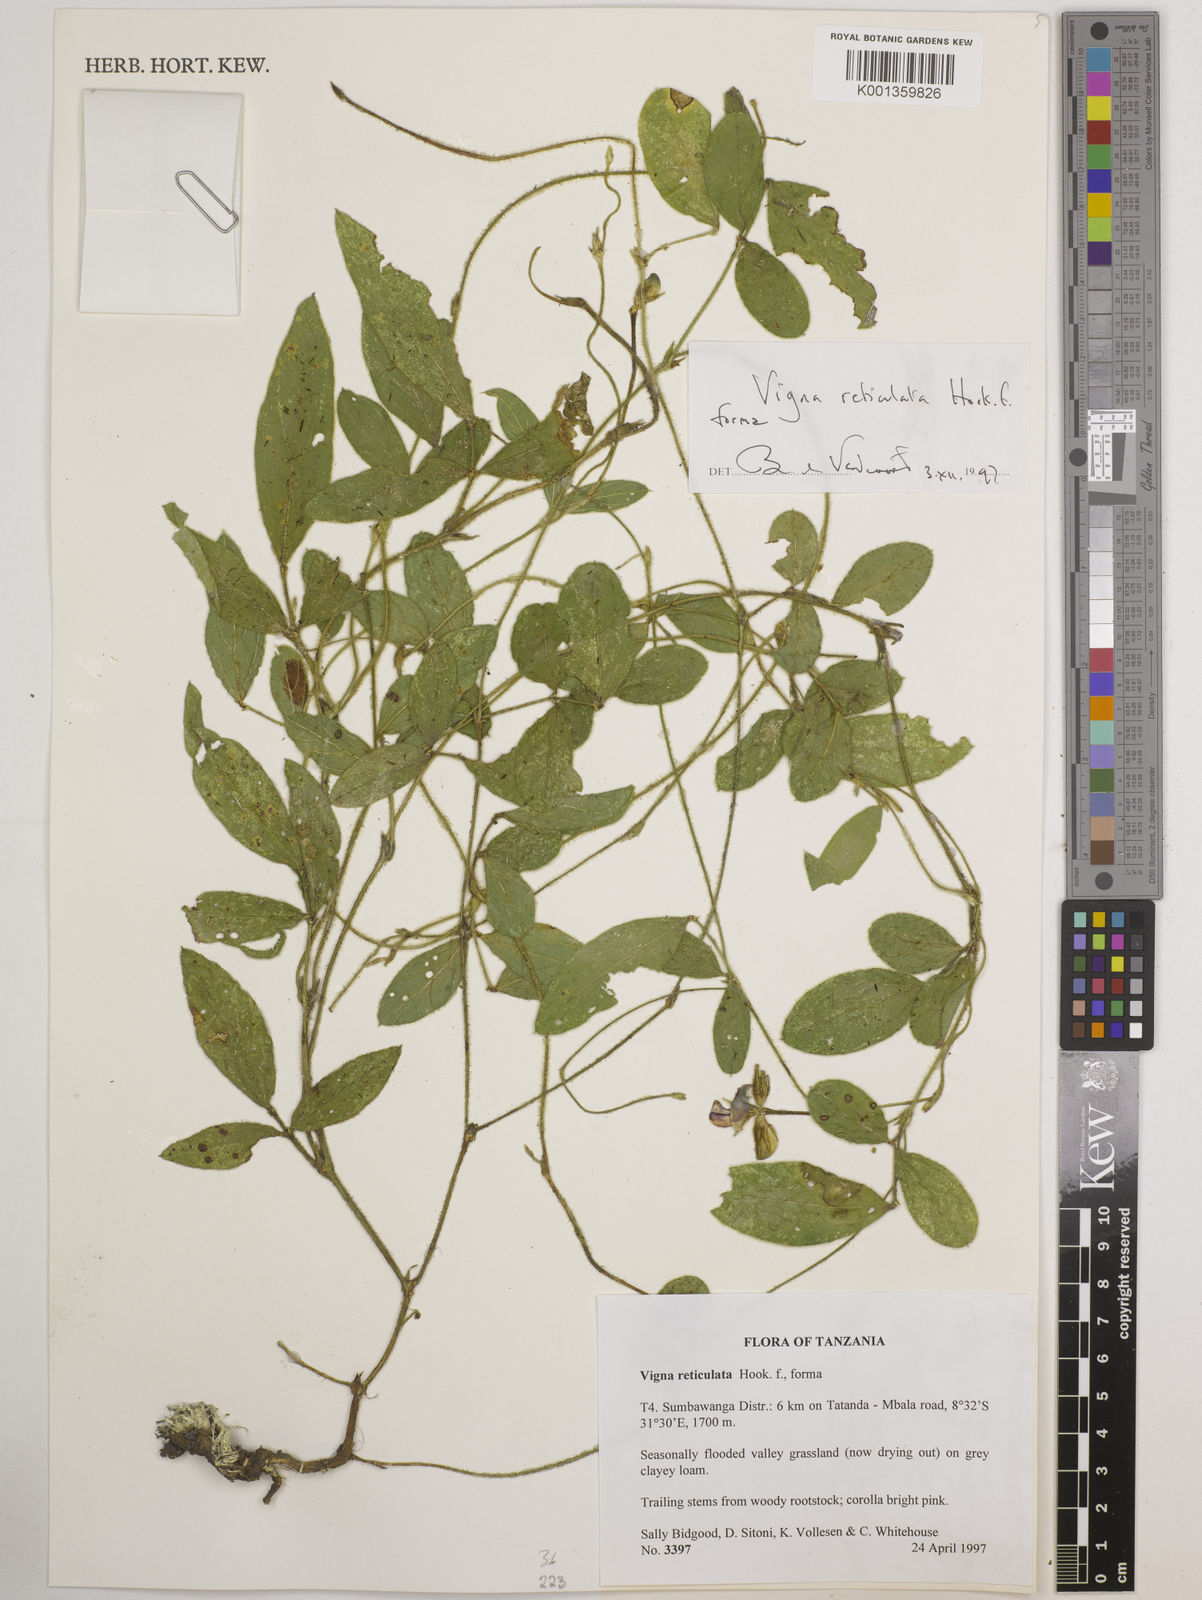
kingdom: Plantae
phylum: Tracheophyta
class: Magnoliopsida
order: Fabales
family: Fabaceae
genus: Vigna
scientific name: Vigna reticulata
